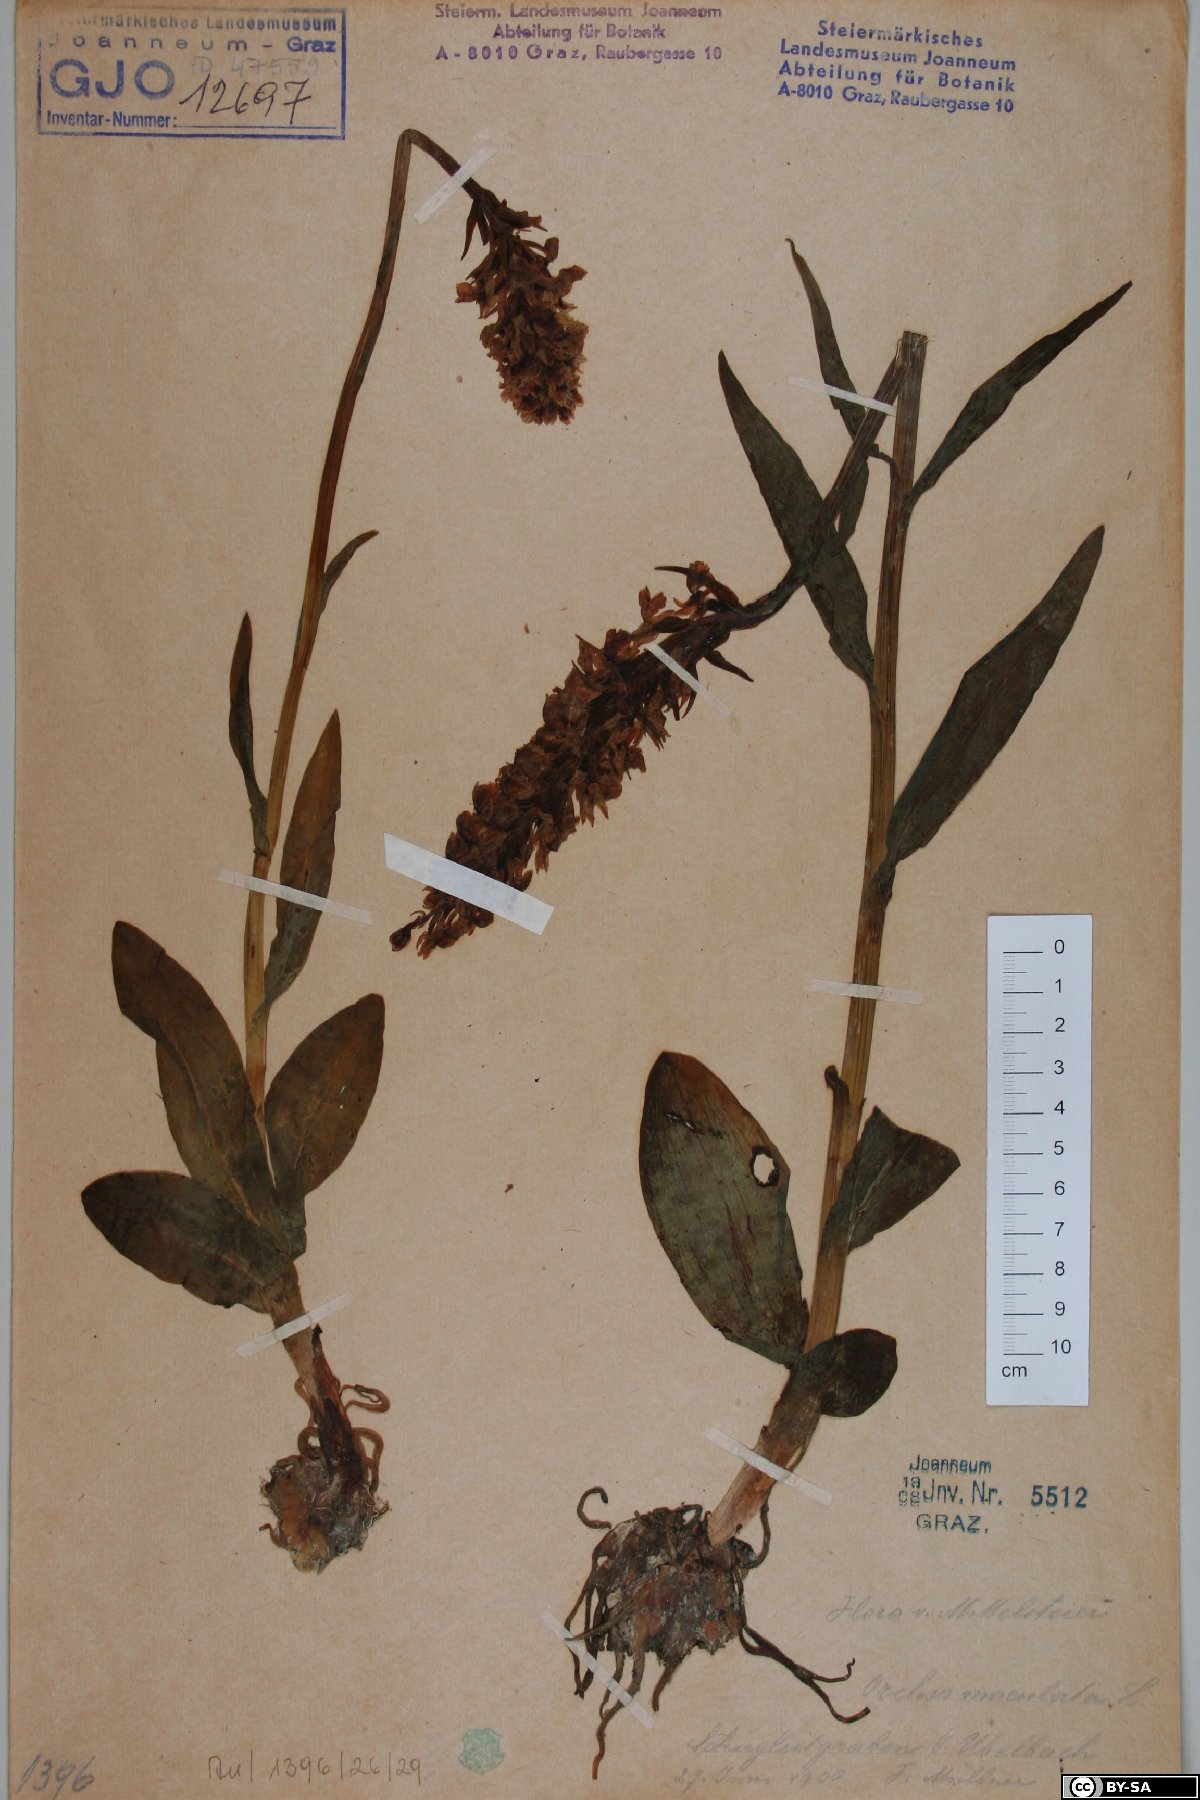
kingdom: Plantae
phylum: Tracheophyta
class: Liliopsida
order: Asparagales
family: Orchidaceae
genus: Dactylorhiza
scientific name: Dactylorhiza maculata
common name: Heath spotted-orchid
